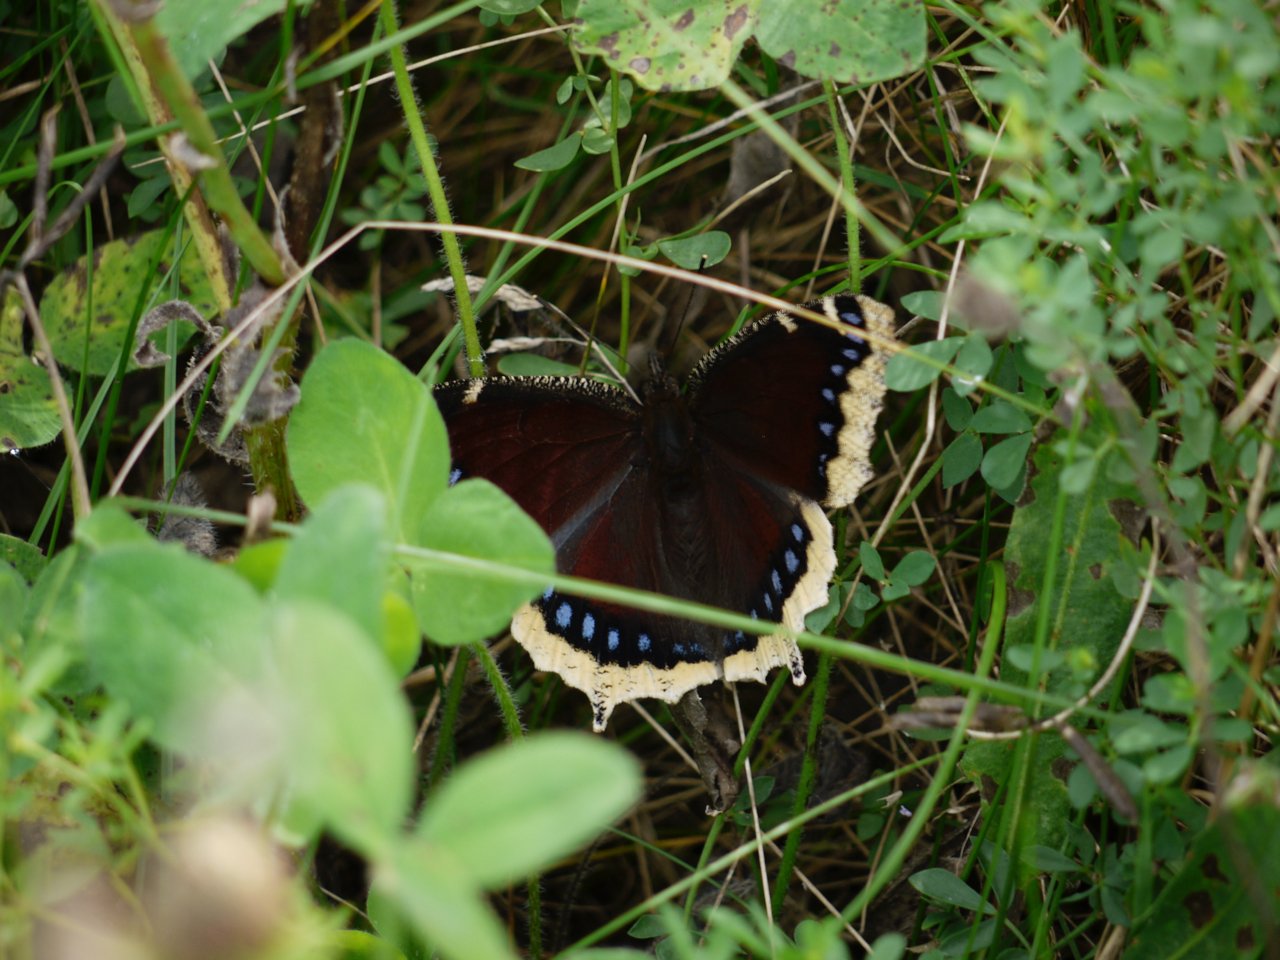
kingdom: Animalia
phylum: Arthropoda
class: Insecta
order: Lepidoptera
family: Nymphalidae
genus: Nymphalis
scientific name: Nymphalis antiopa
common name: Mourning Cloak
